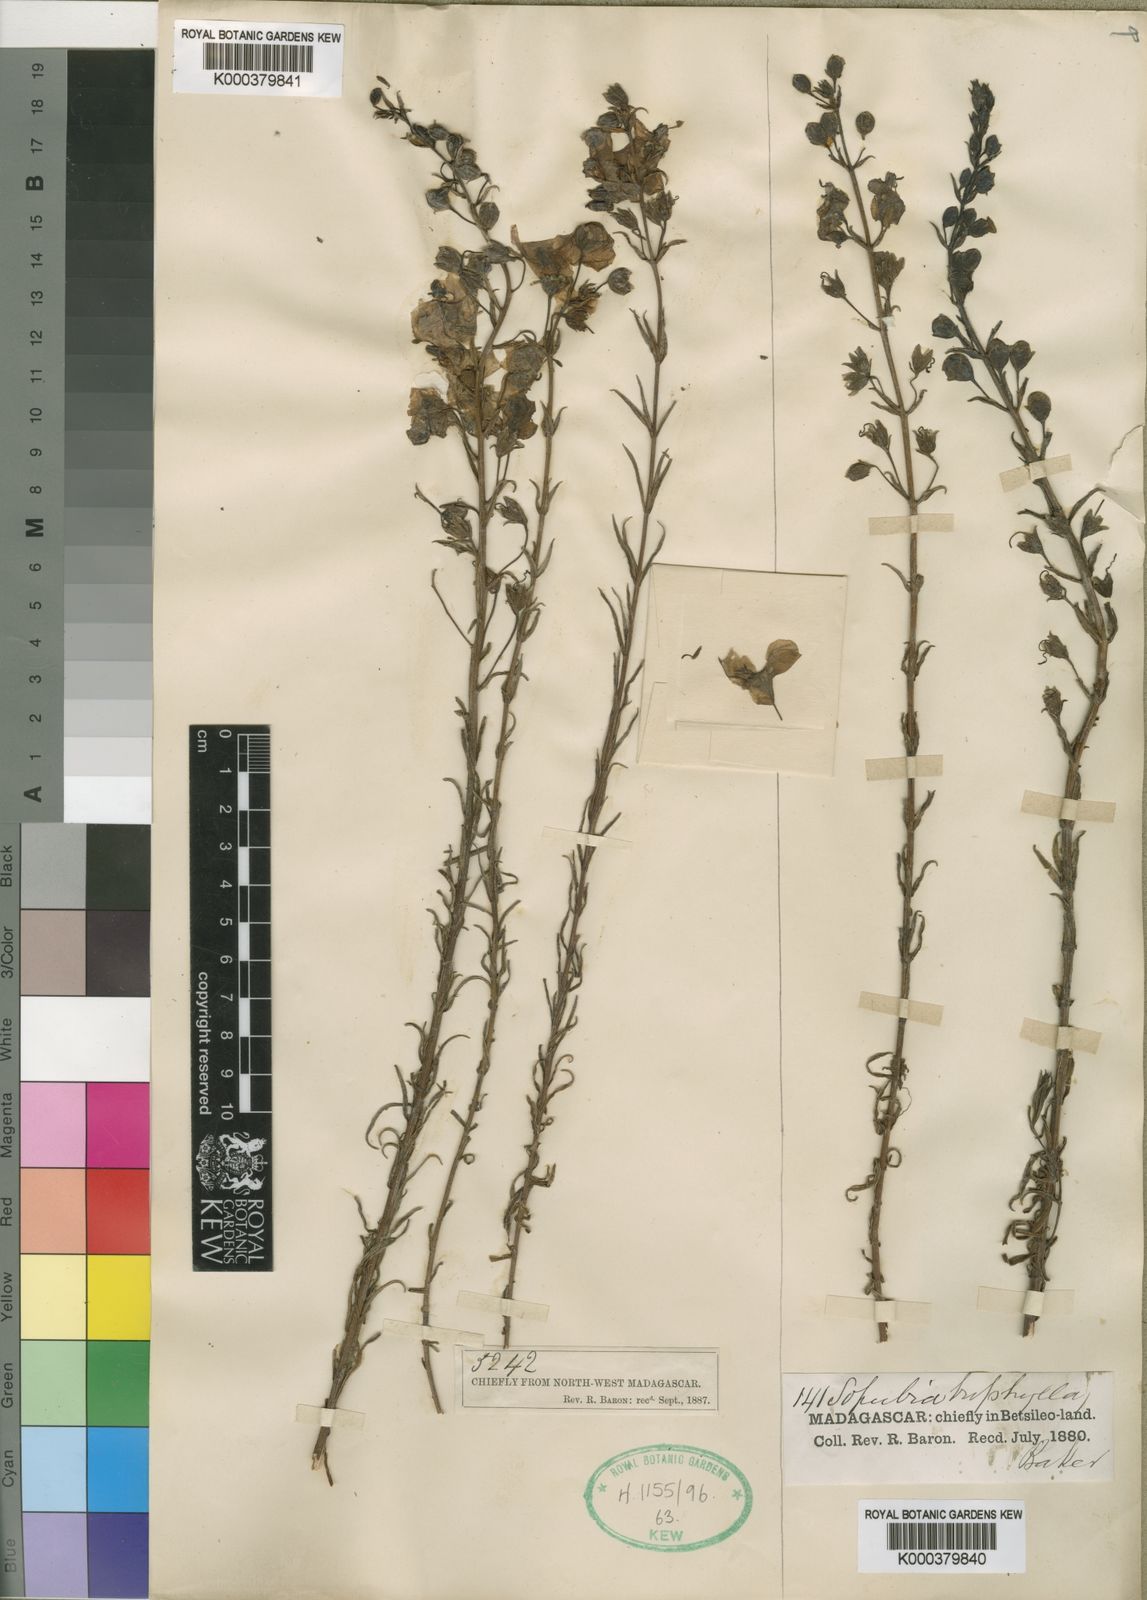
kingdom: Plantae
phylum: Tracheophyta
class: Magnoliopsida
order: Lamiales
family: Orobanchaceae
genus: Sopubia
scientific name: Sopubia triphylla
